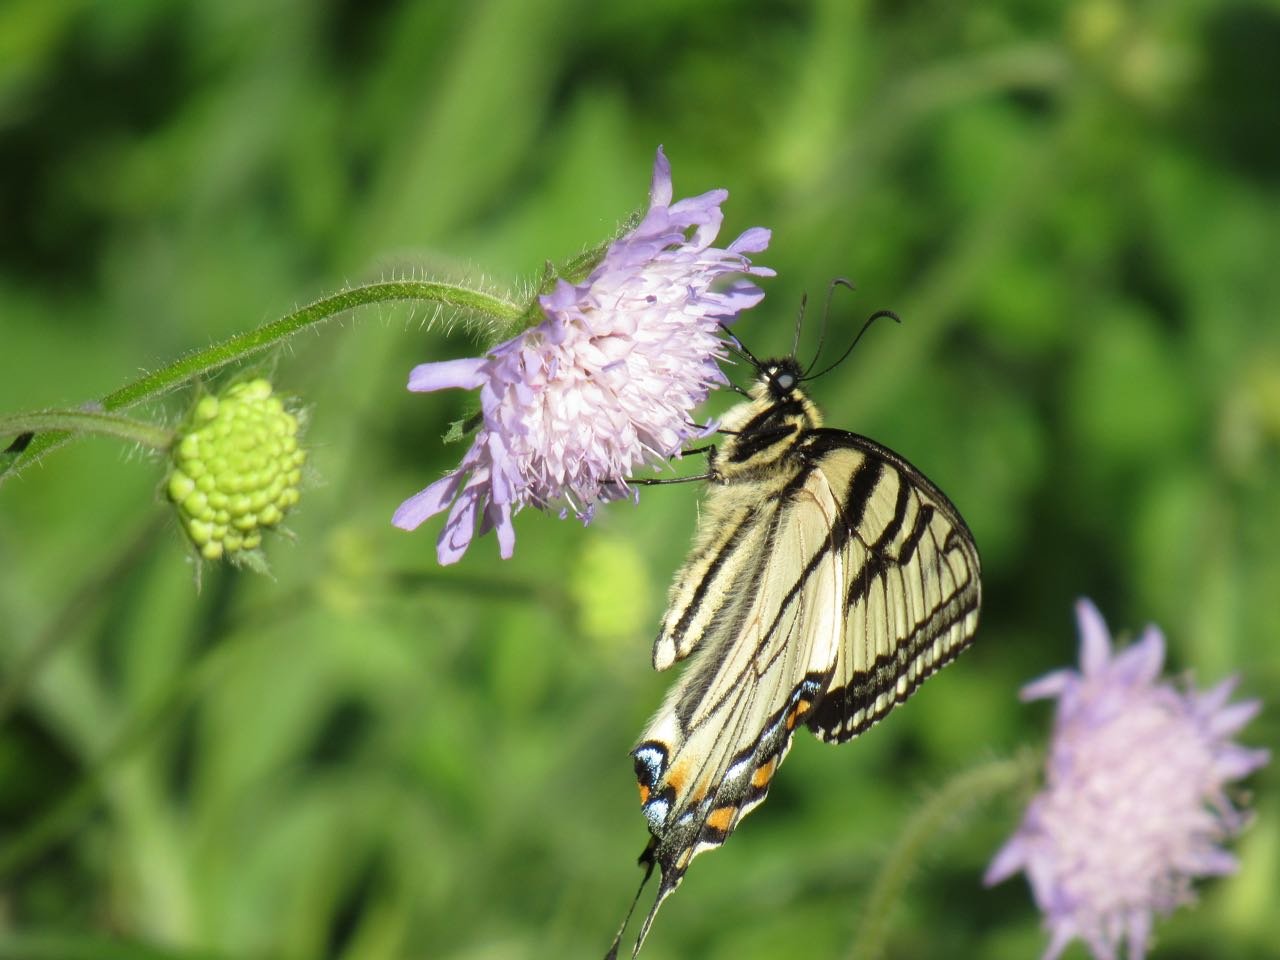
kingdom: Animalia
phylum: Arthropoda
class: Insecta
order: Lepidoptera
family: Papilionidae
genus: Pterourus
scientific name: Pterourus canadensis
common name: Canadian Tiger Swallowtail
